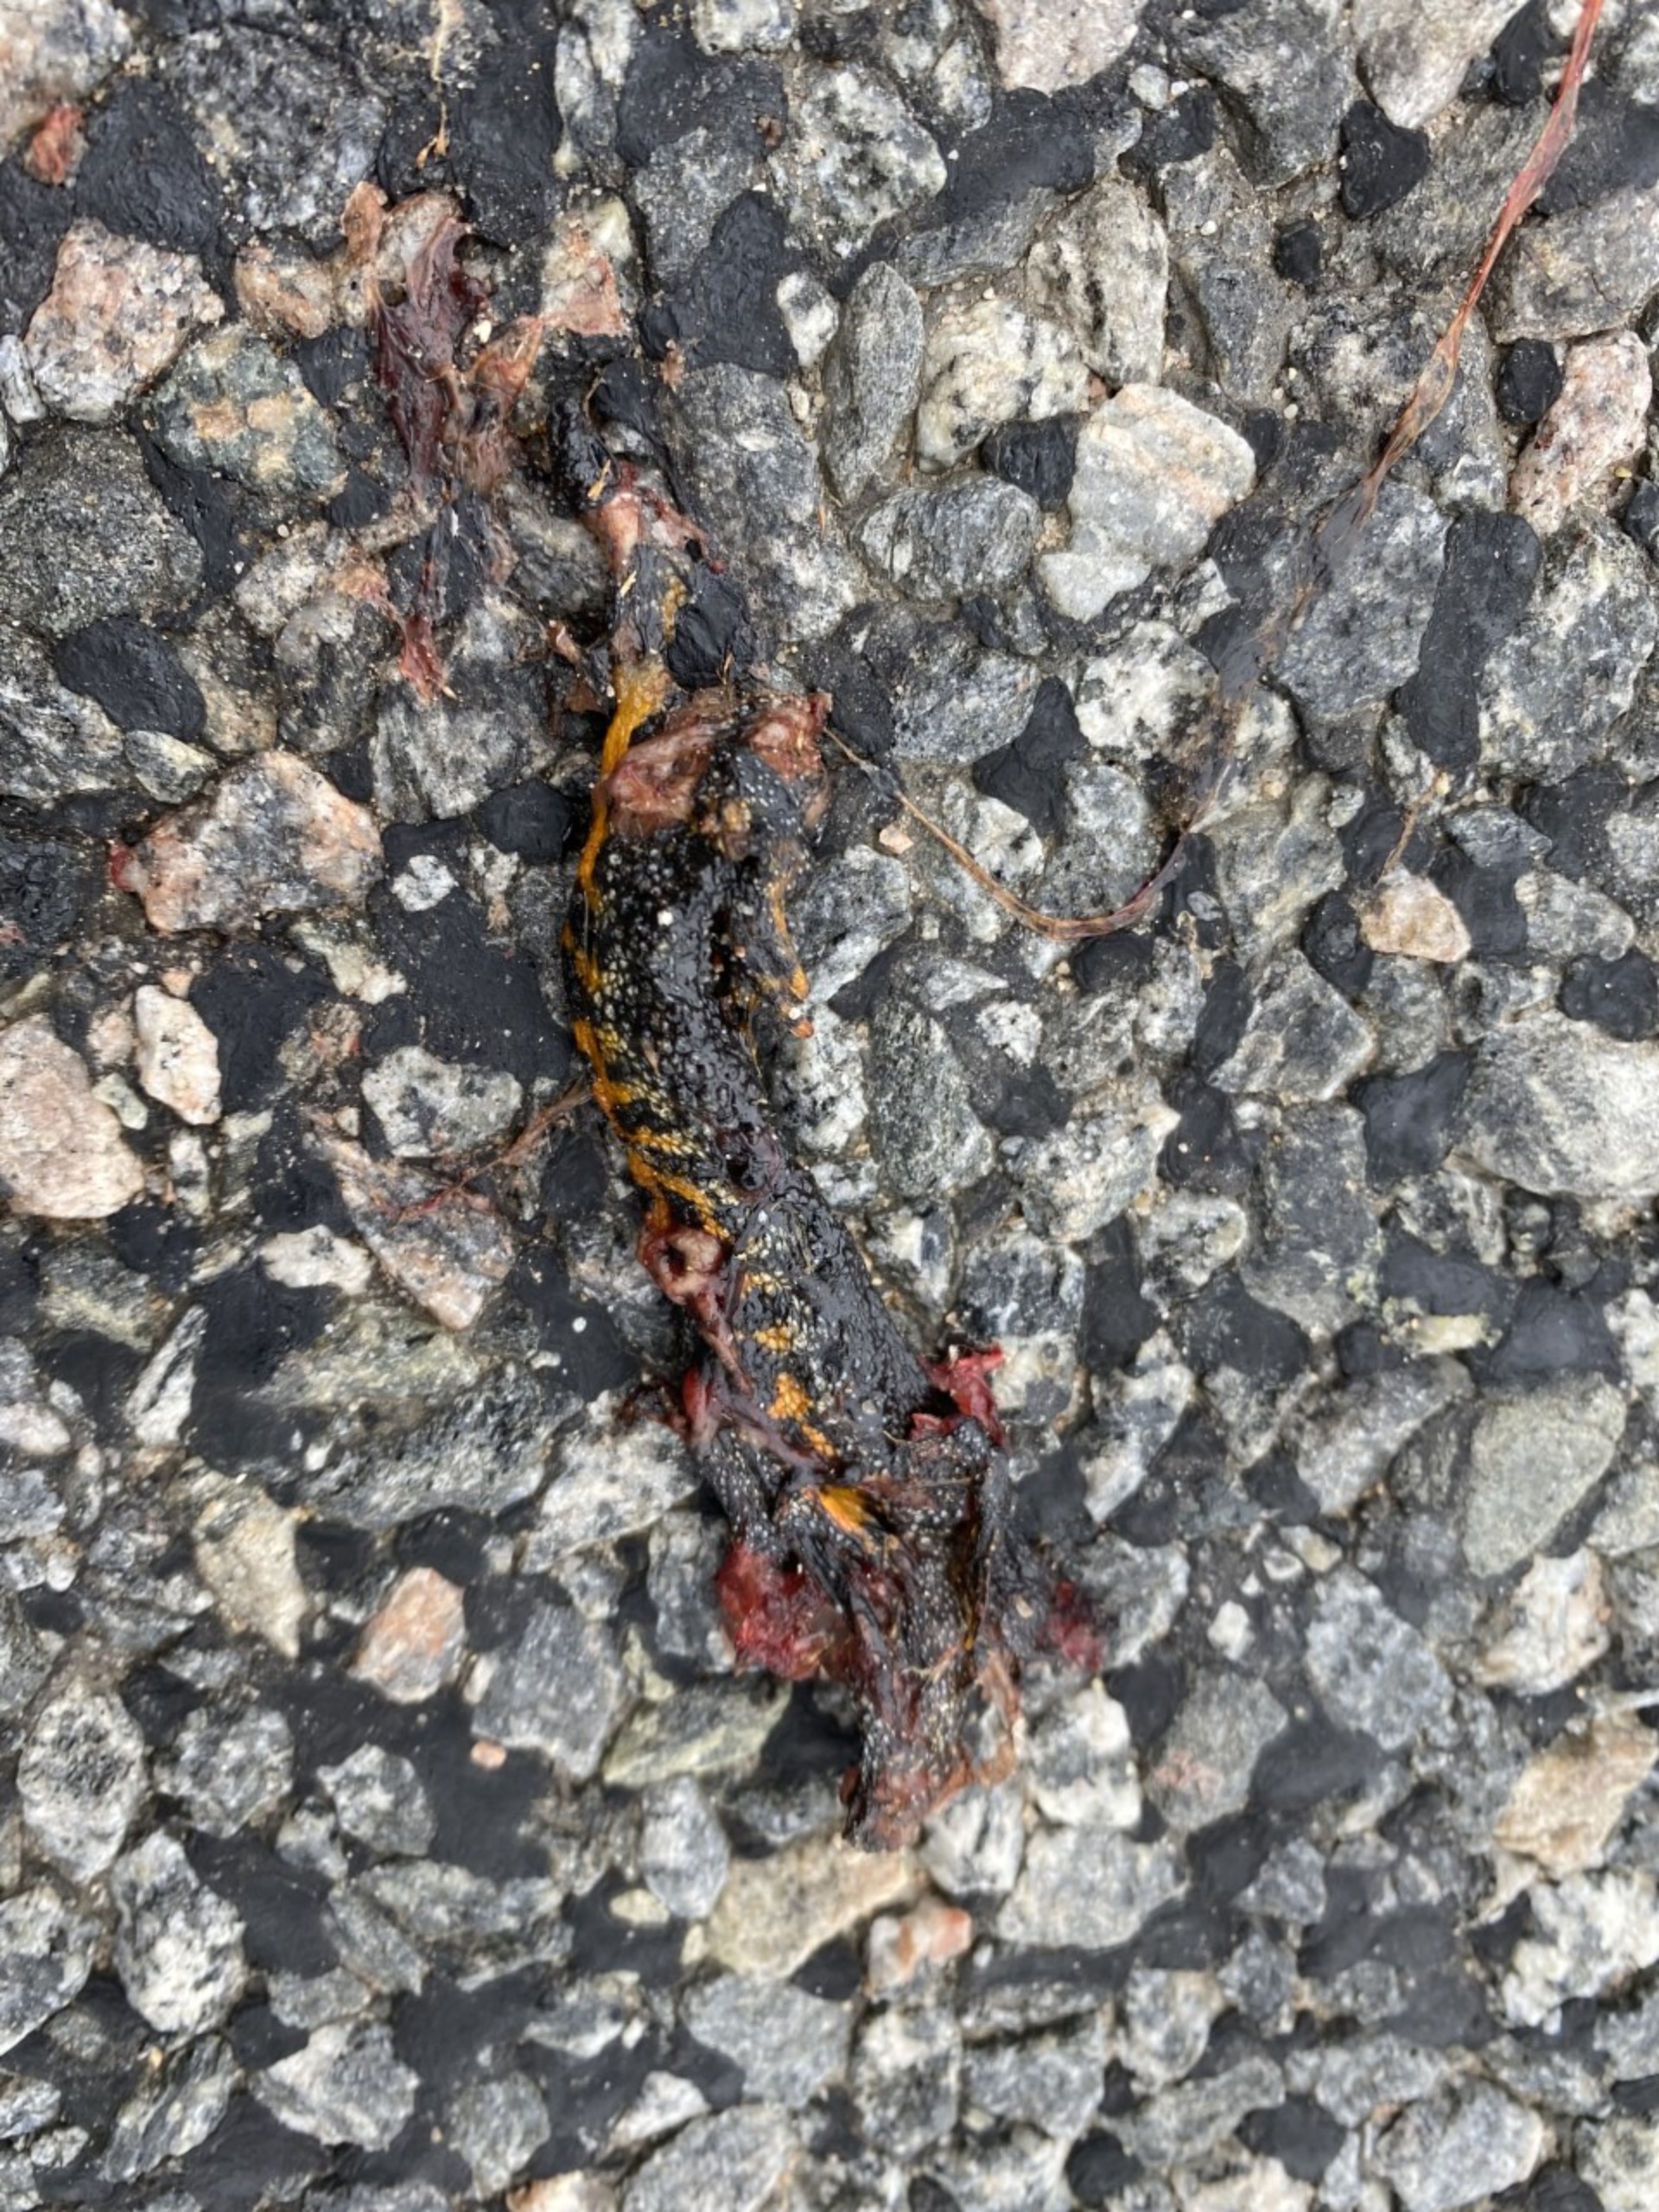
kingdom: Animalia
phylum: Chordata
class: Amphibia
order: Caudata
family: Salamandridae
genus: Triturus
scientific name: Triturus cristatus
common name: Stor vandsalamander
